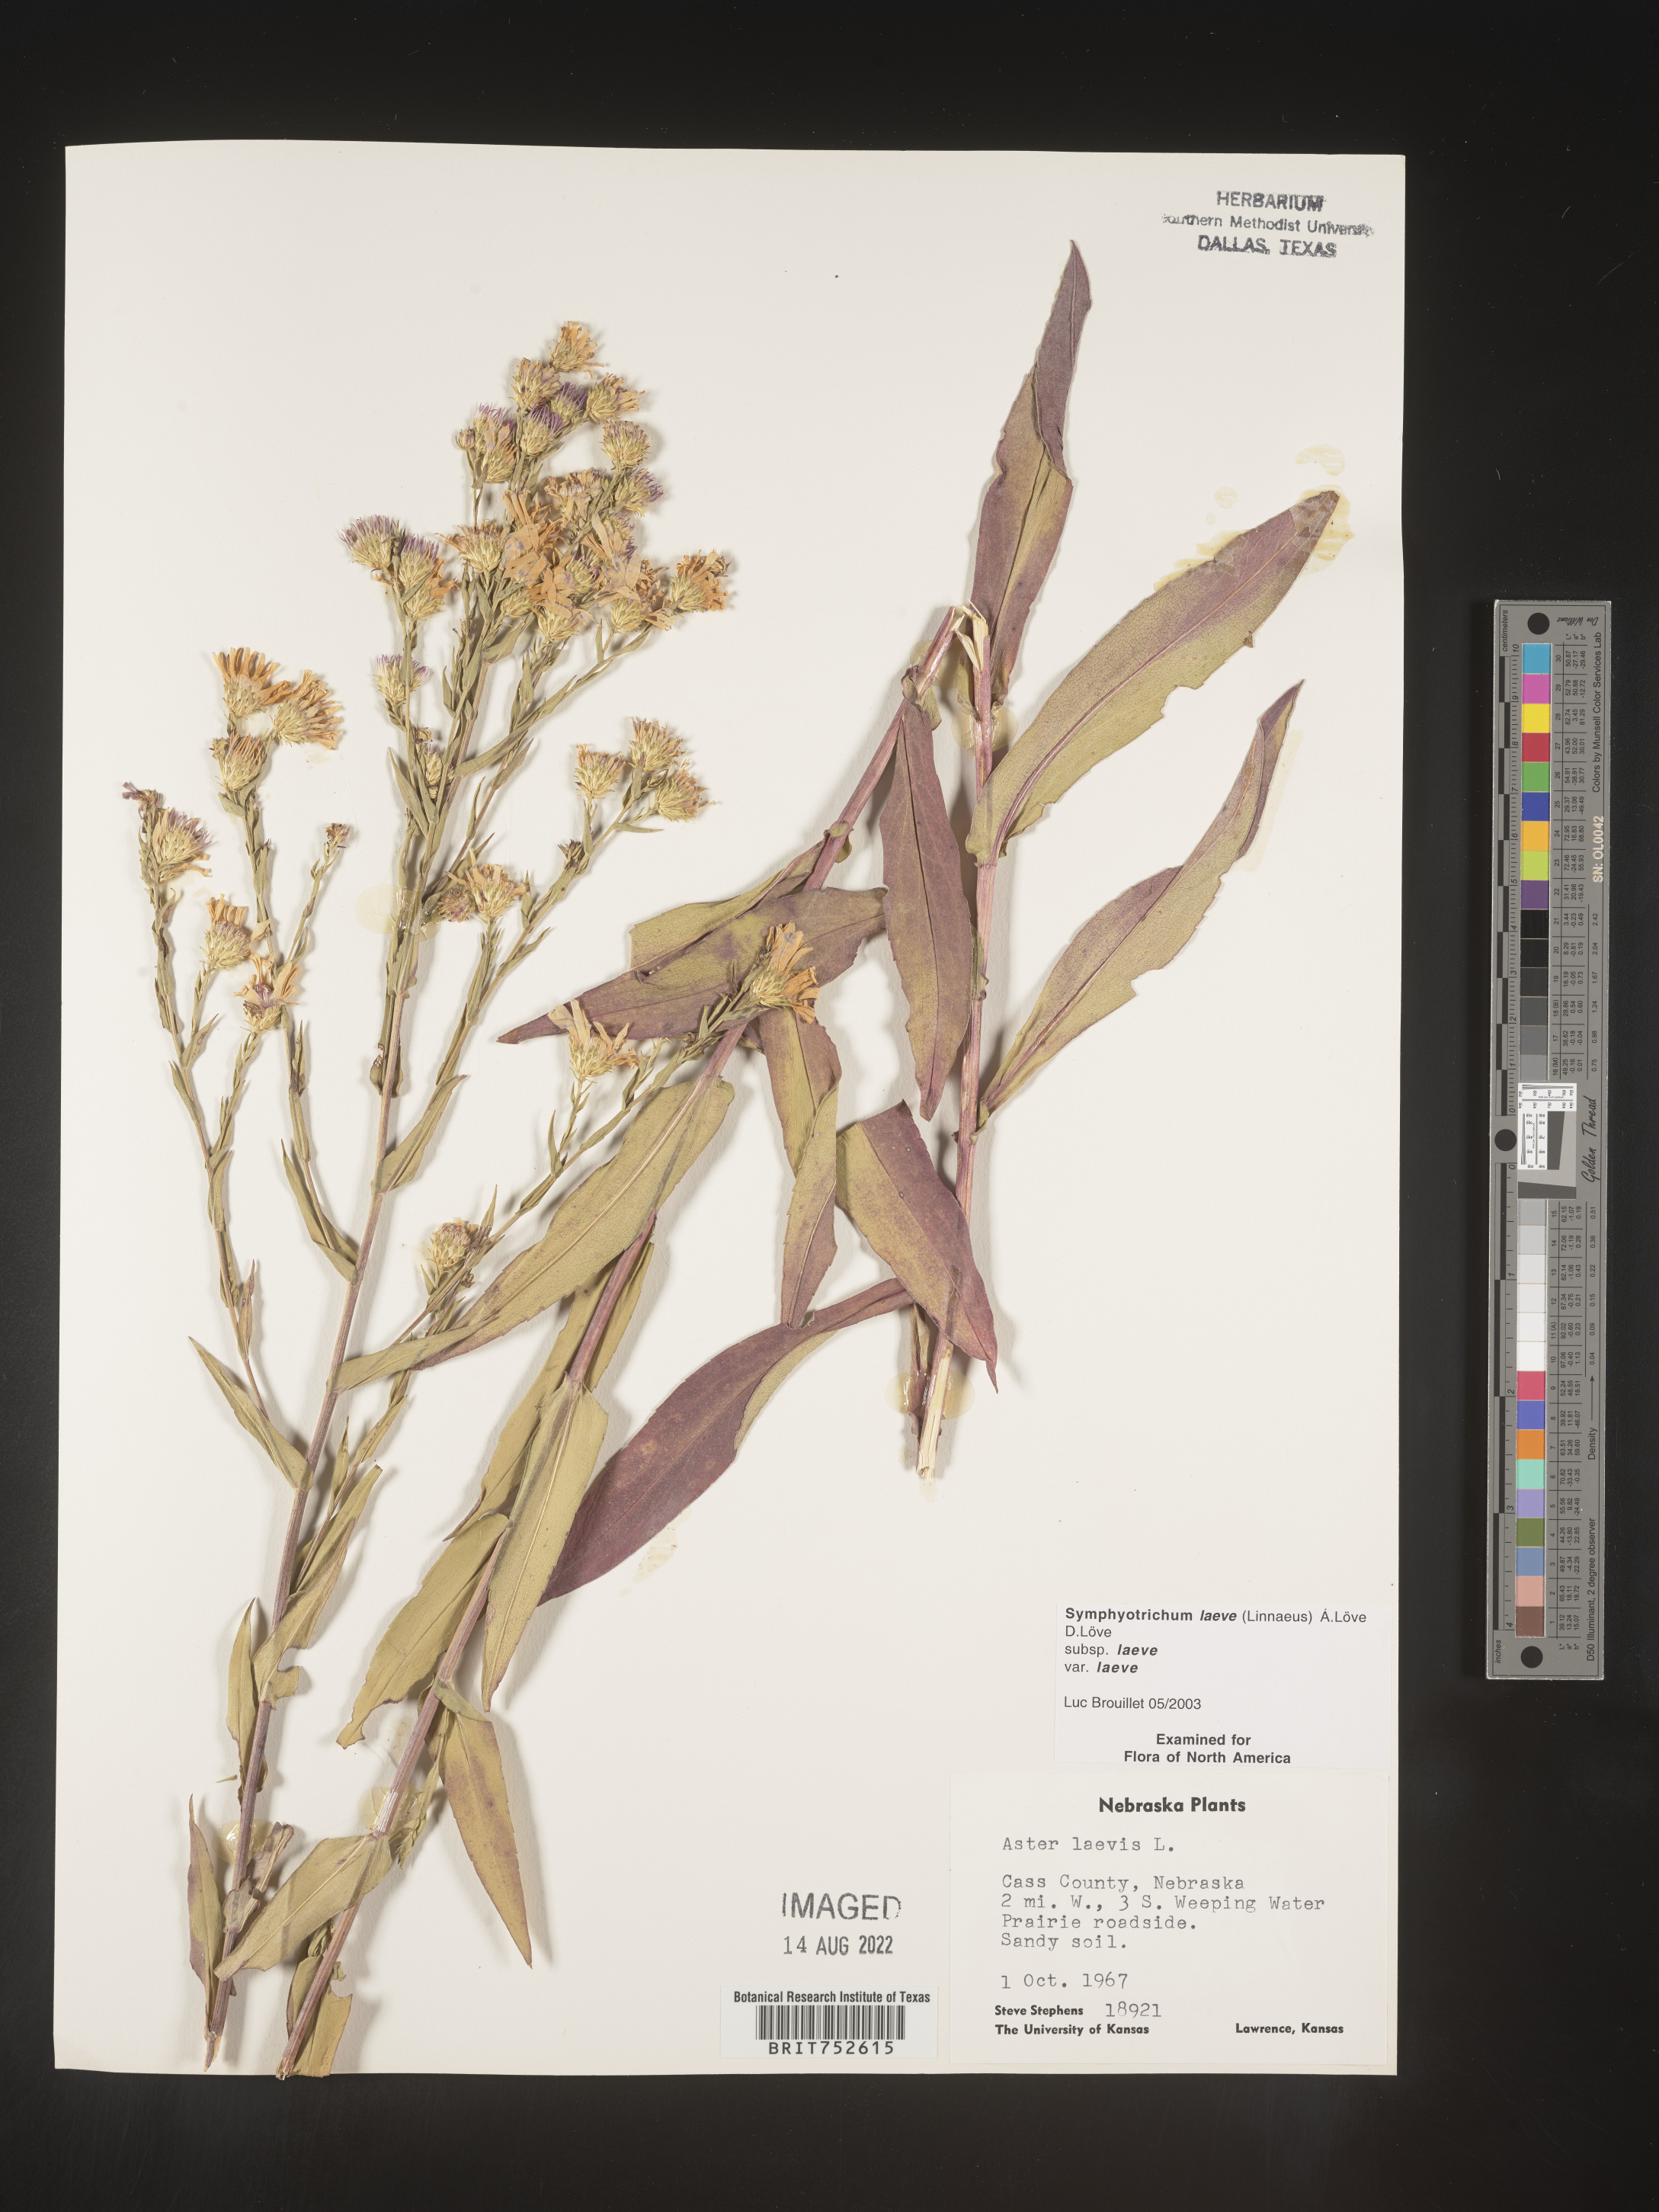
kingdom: Plantae
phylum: Tracheophyta
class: Magnoliopsida
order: Asterales
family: Asteraceae
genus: Symphyotrichum
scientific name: Symphyotrichum laeve
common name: Glaucous aster
